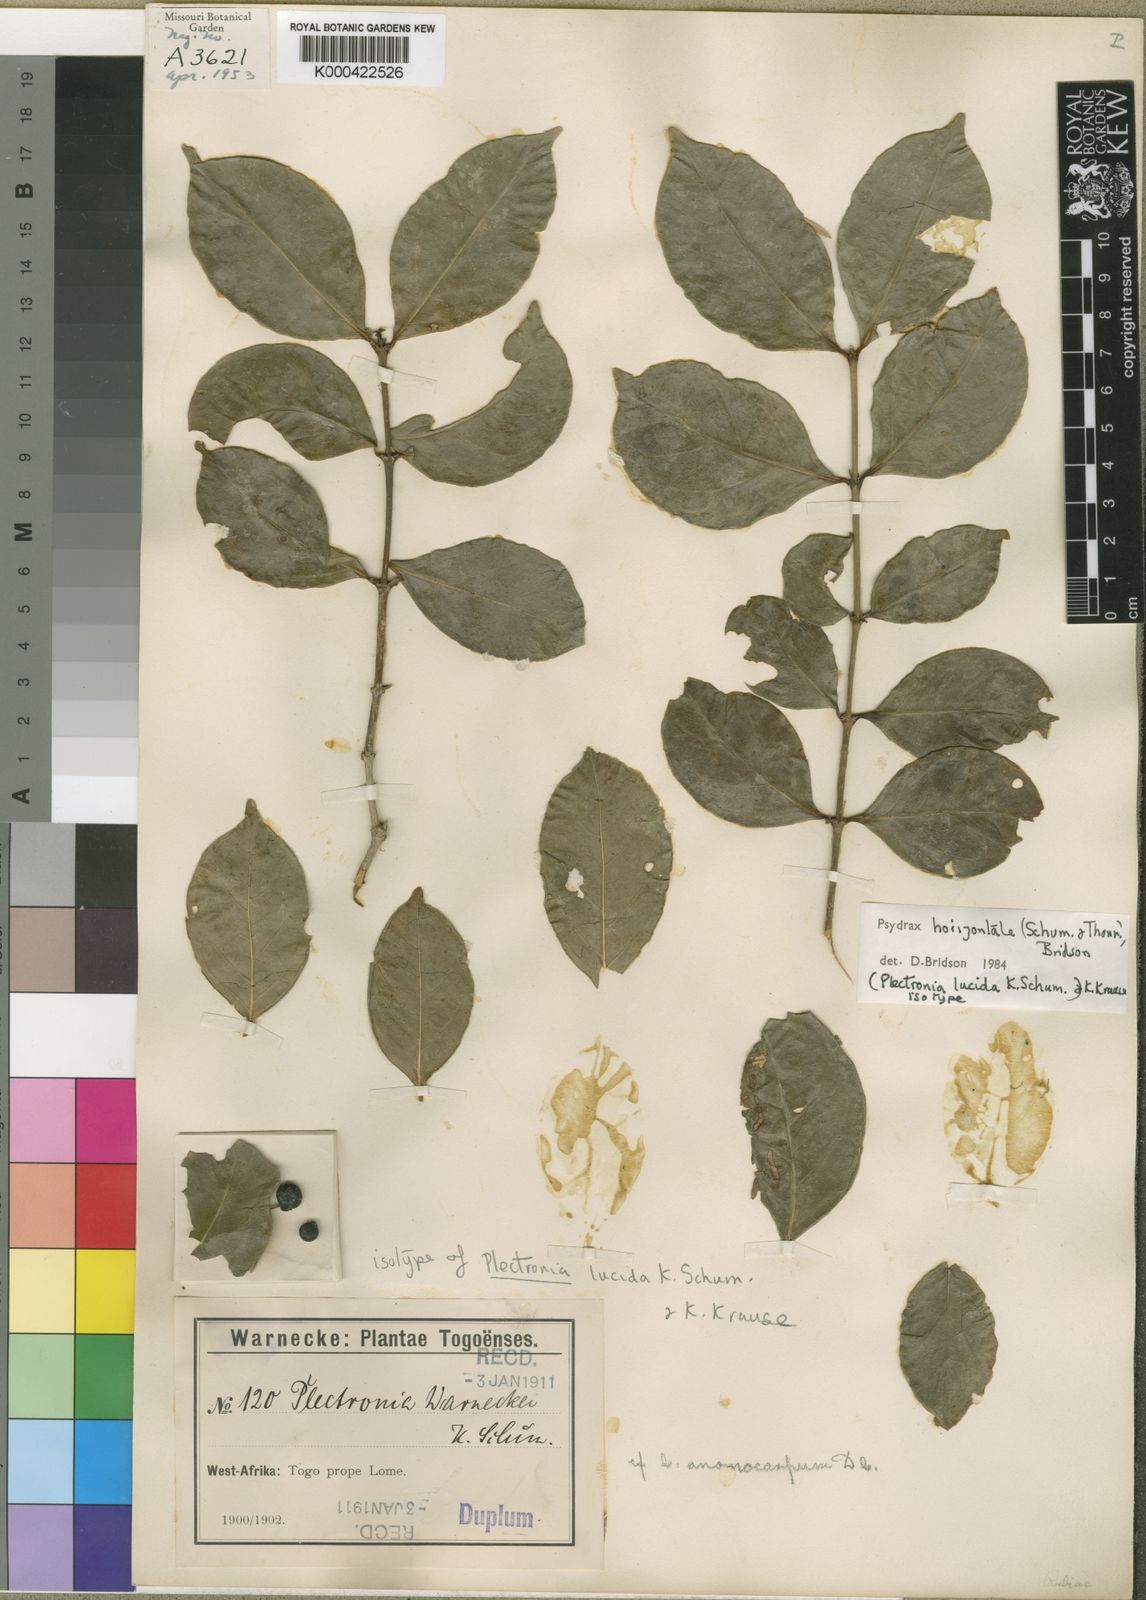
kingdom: Plantae
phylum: Tracheophyta
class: Magnoliopsida
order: Gentianales
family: Rubiaceae
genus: Psydrax
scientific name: Psydrax horizontalis
